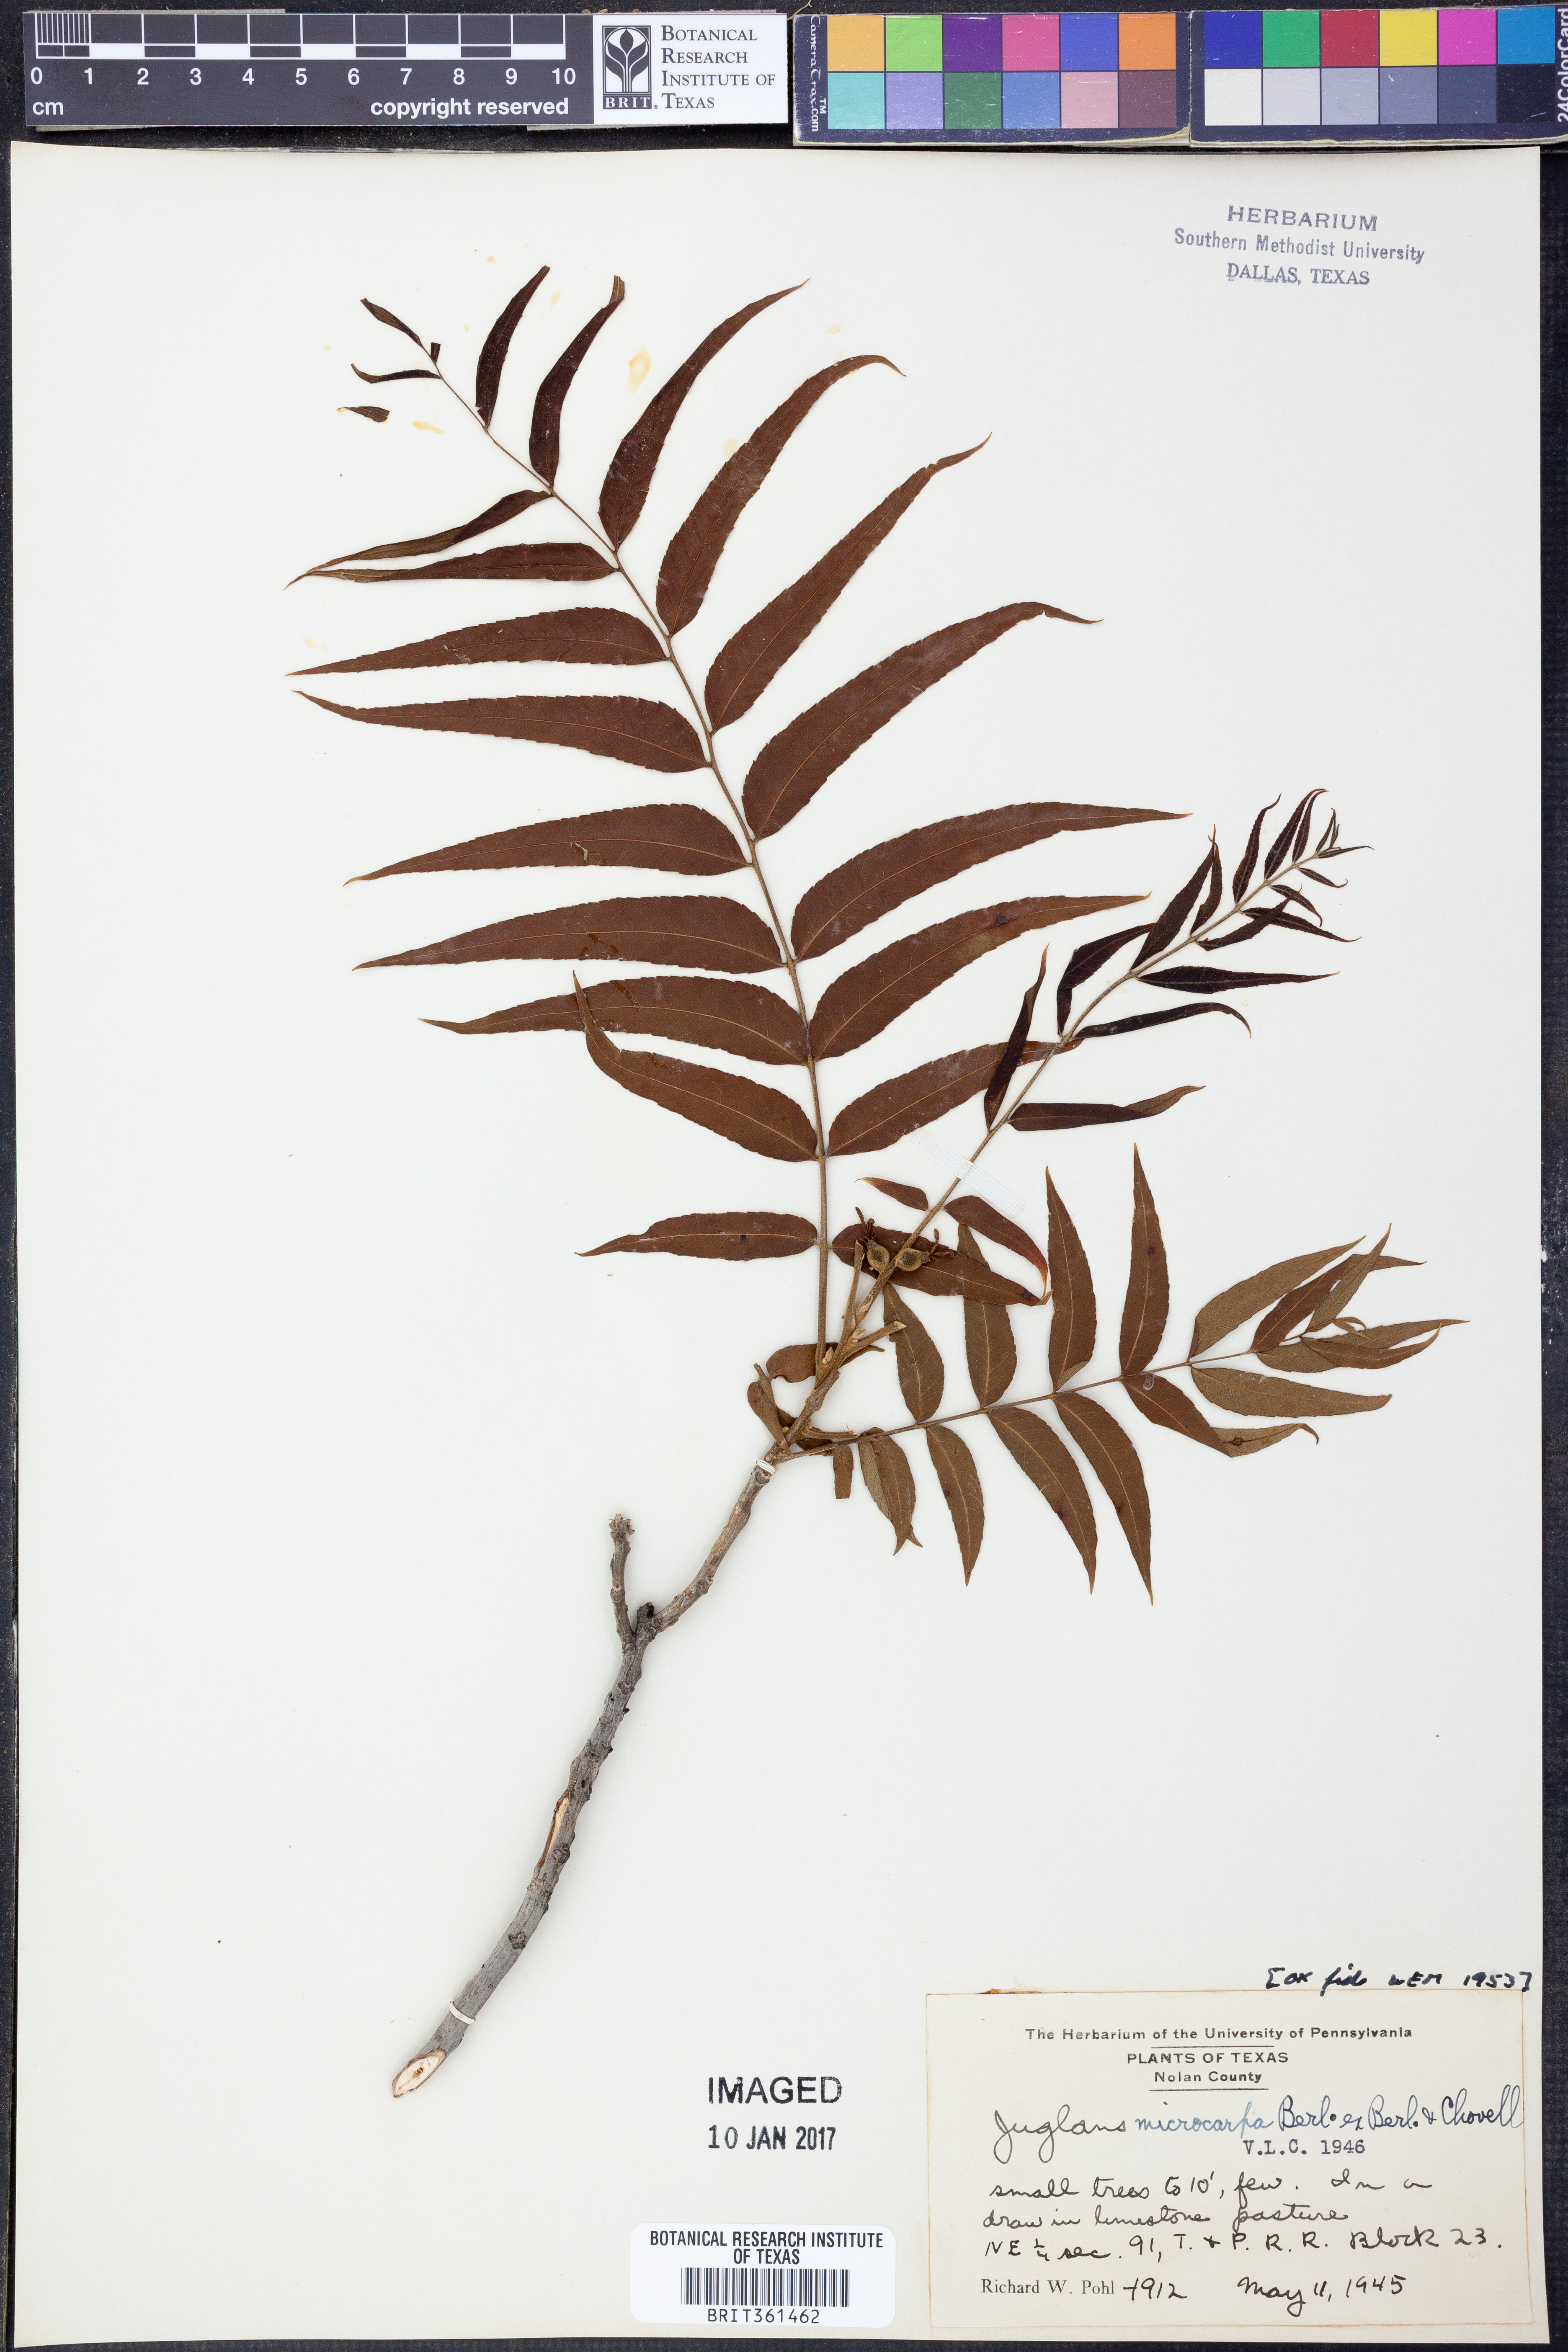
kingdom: Plantae
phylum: Tracheophyta
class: Magnoliopsida
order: Fagales
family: Juglandaceae
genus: Juglans
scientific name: Juglans microcarpa
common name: Texas walnut
